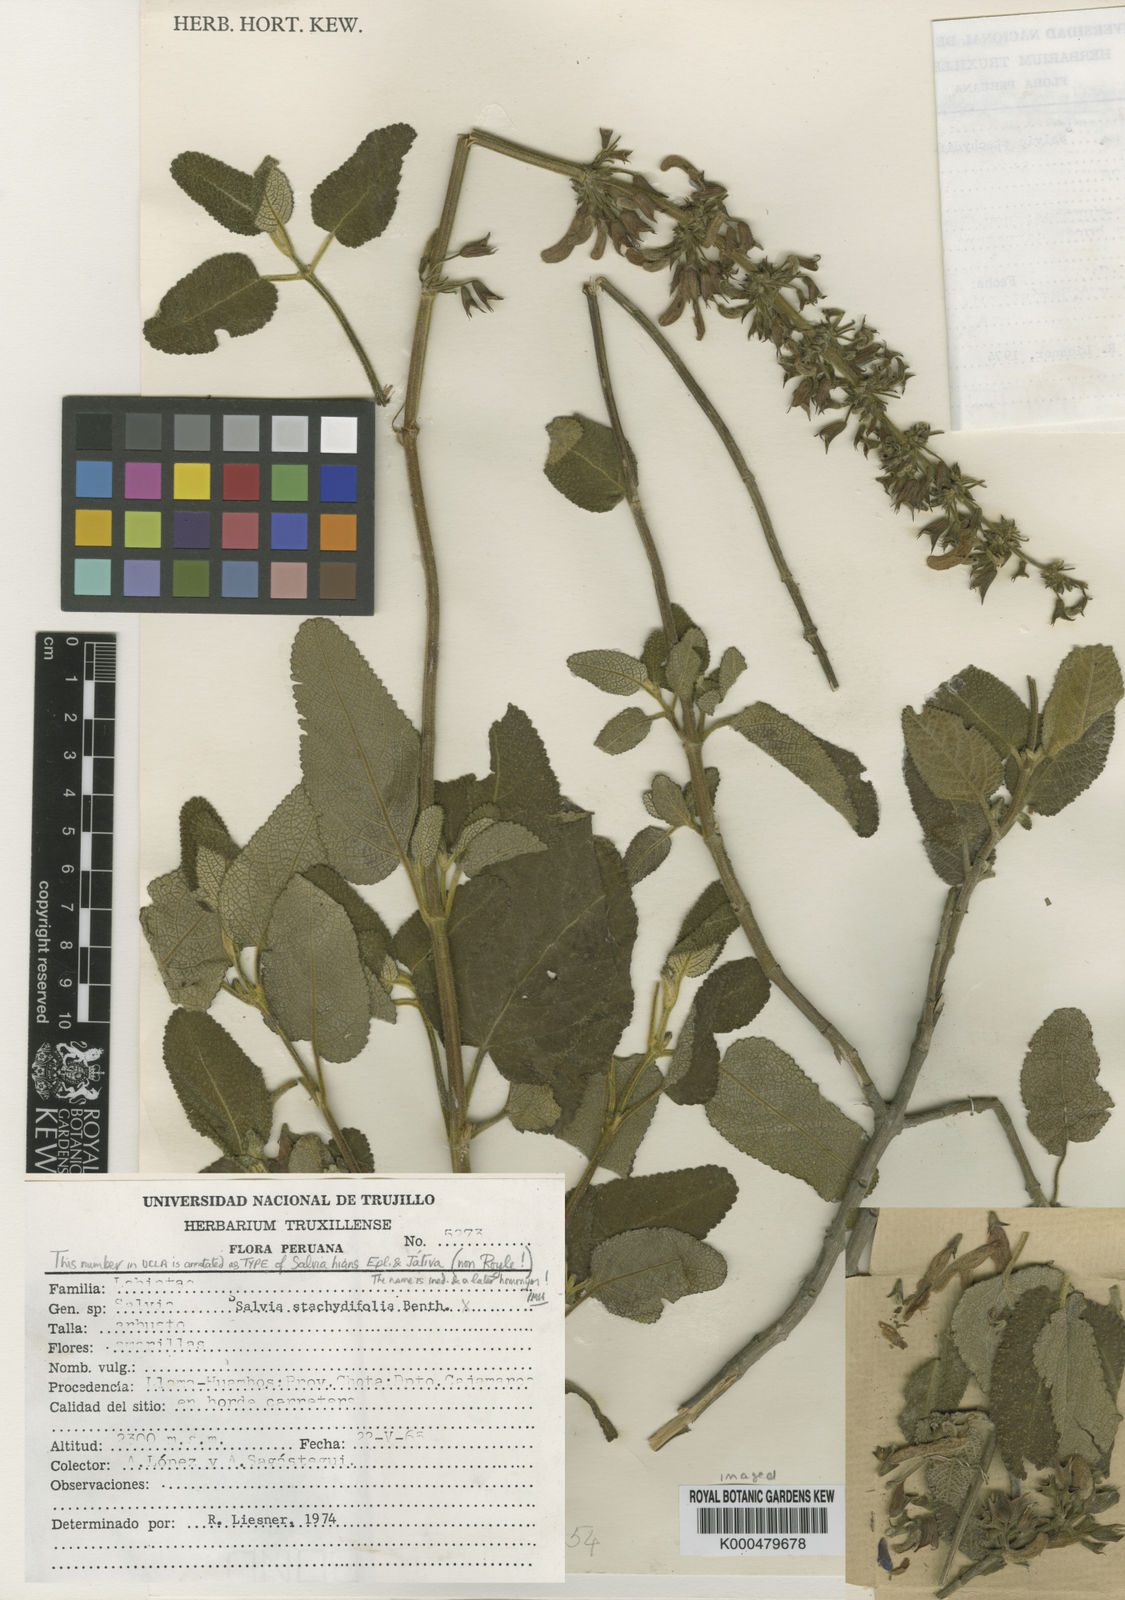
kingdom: Plantae
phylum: Tracheophyta
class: Magnoliopsida
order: Lamiales
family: Lamiaceae
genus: Salvia
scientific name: Salvia stachydifolia
